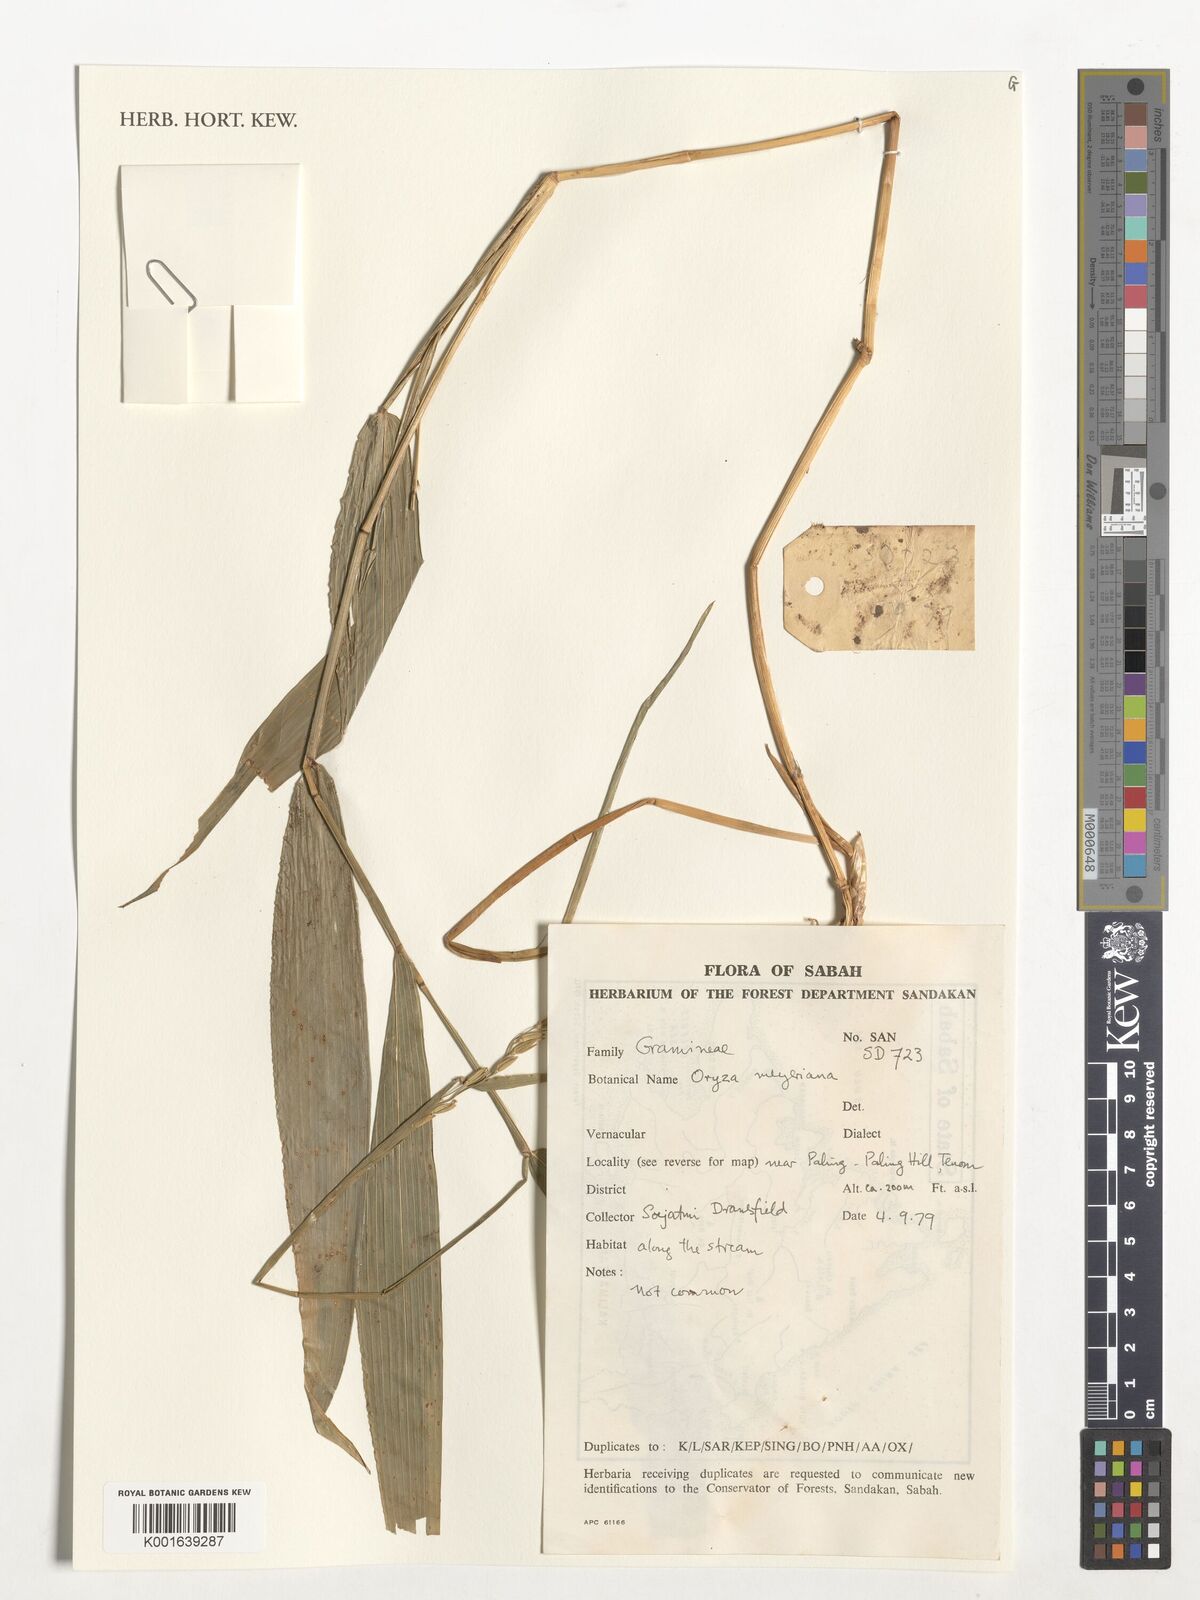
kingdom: Plantae
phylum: Tracheophyta
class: Liliopsida
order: Poales
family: Poaceae
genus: Oryza
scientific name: Oryza meyeriana
